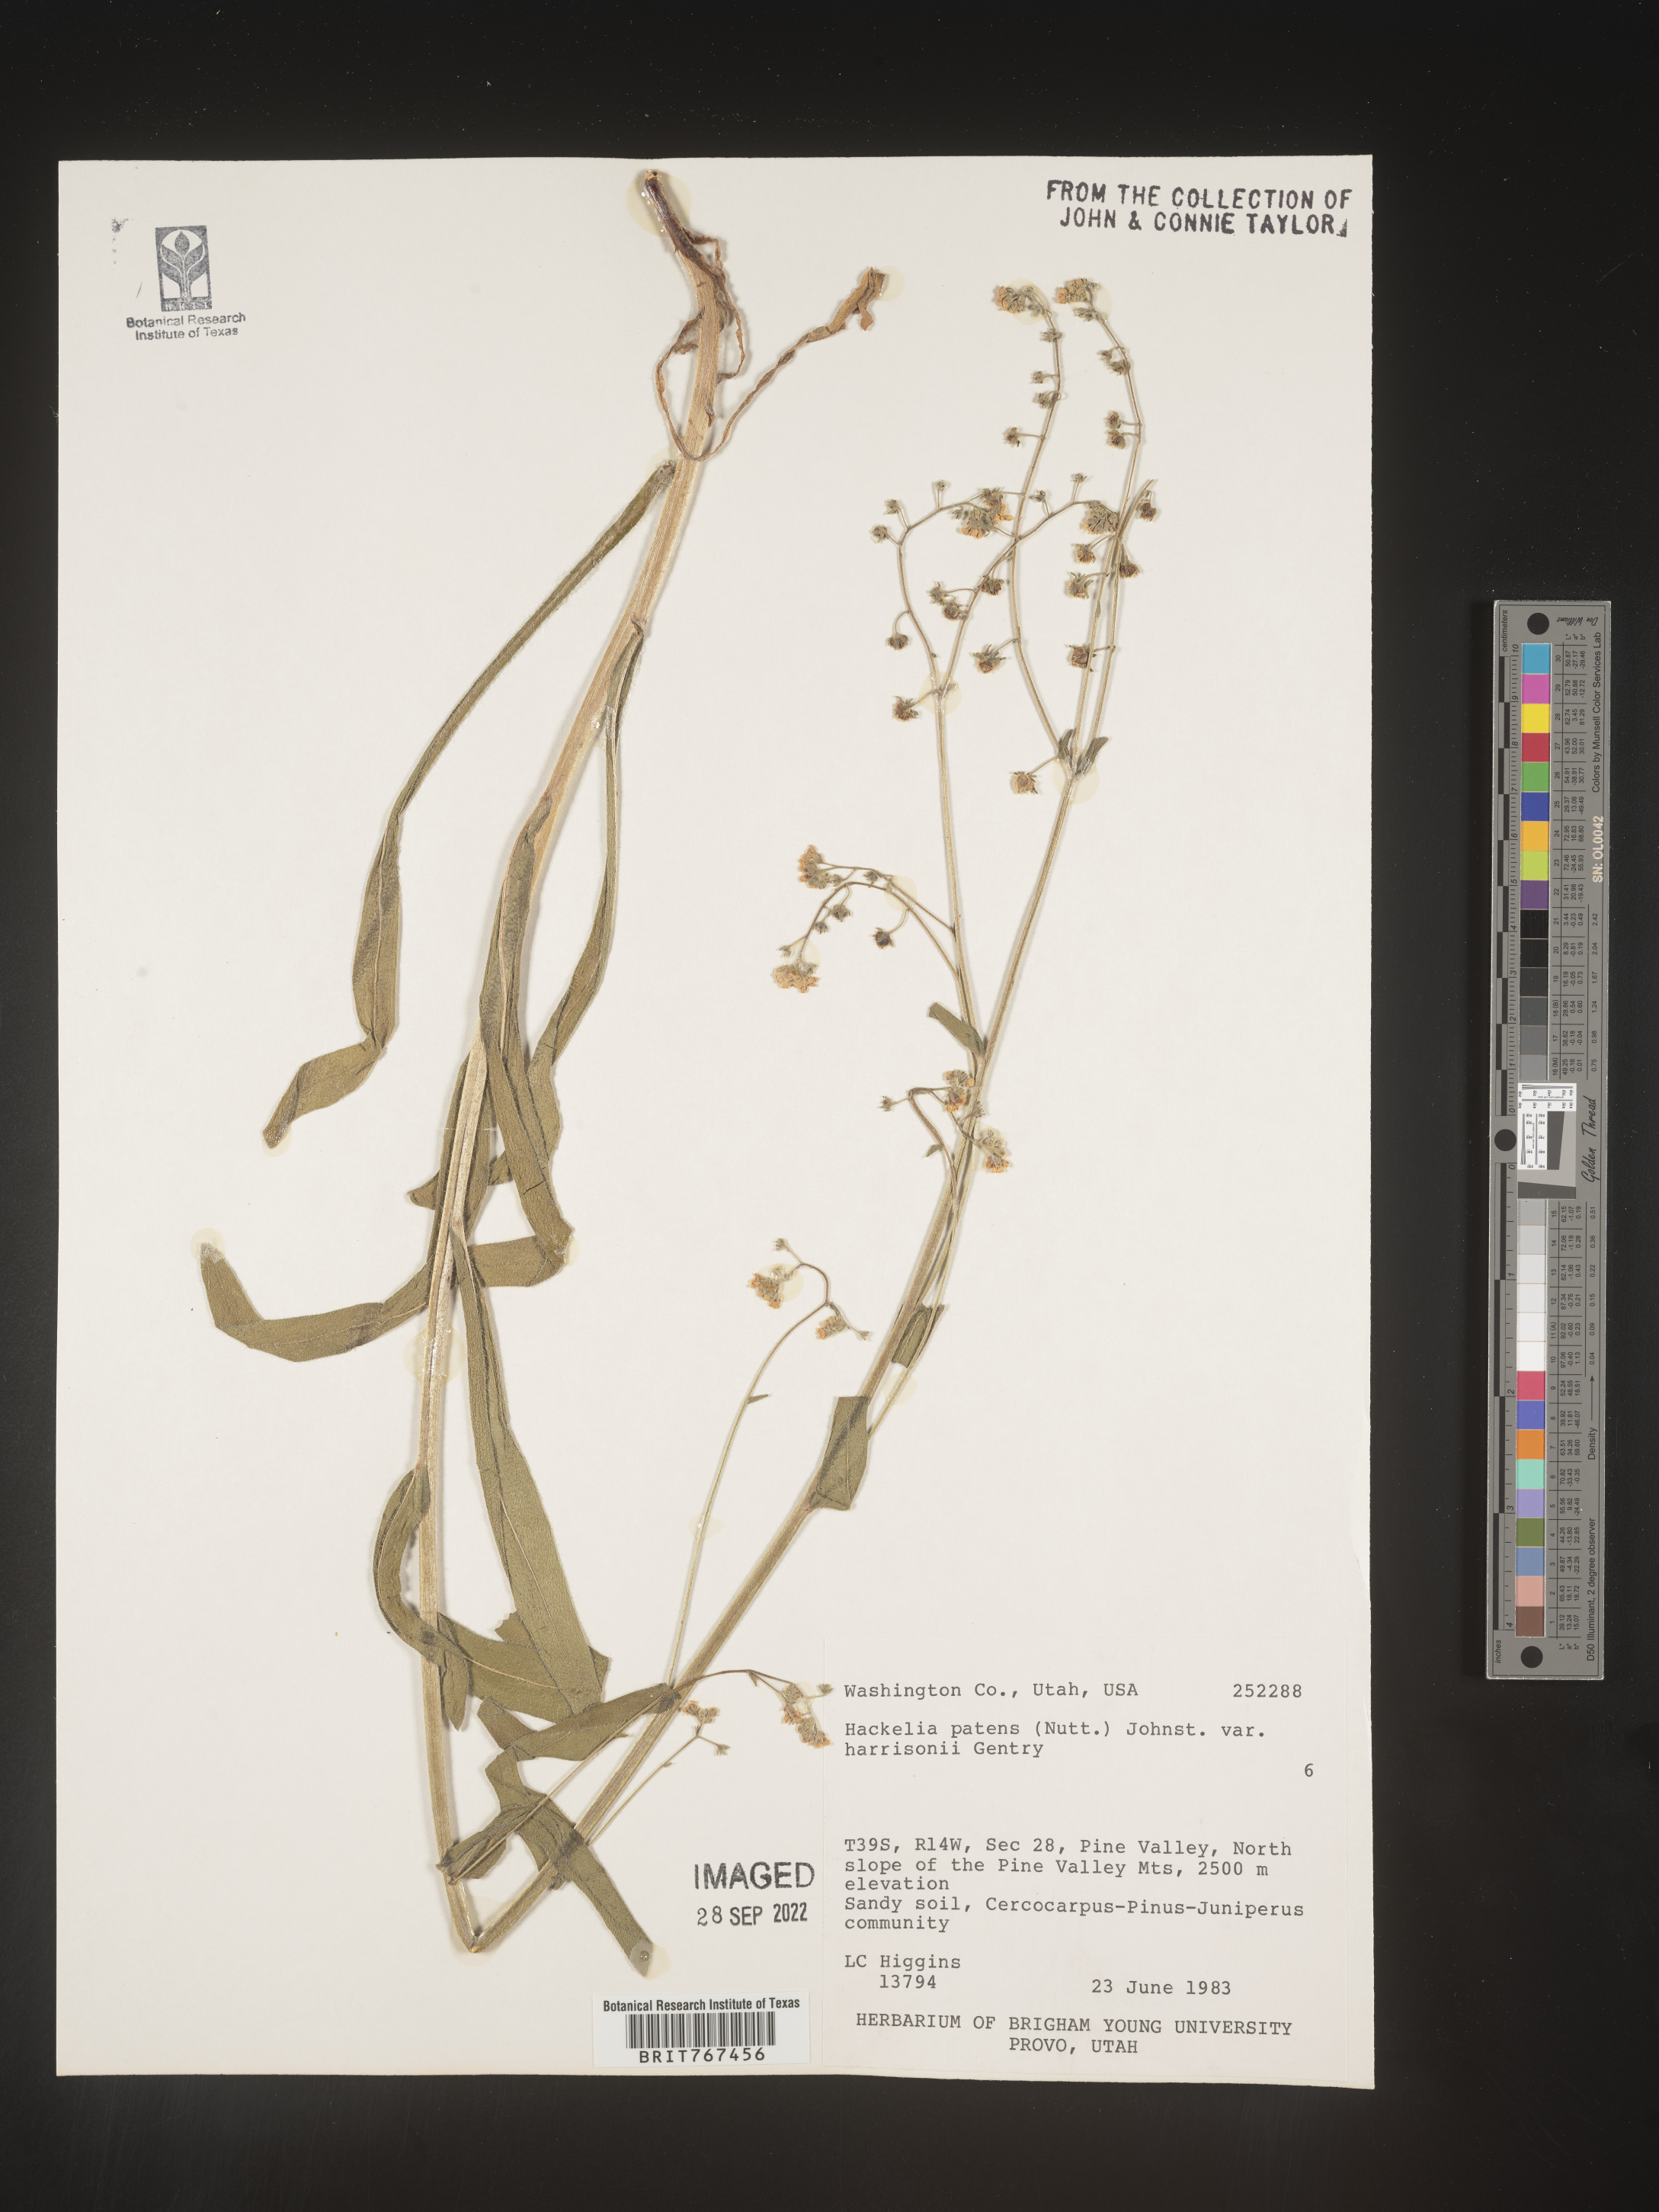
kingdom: Plantae
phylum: Tracheophyta
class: Magnoliopsida
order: Boraginales
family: Boraginaceae
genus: Hackelia
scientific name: Hackelia
